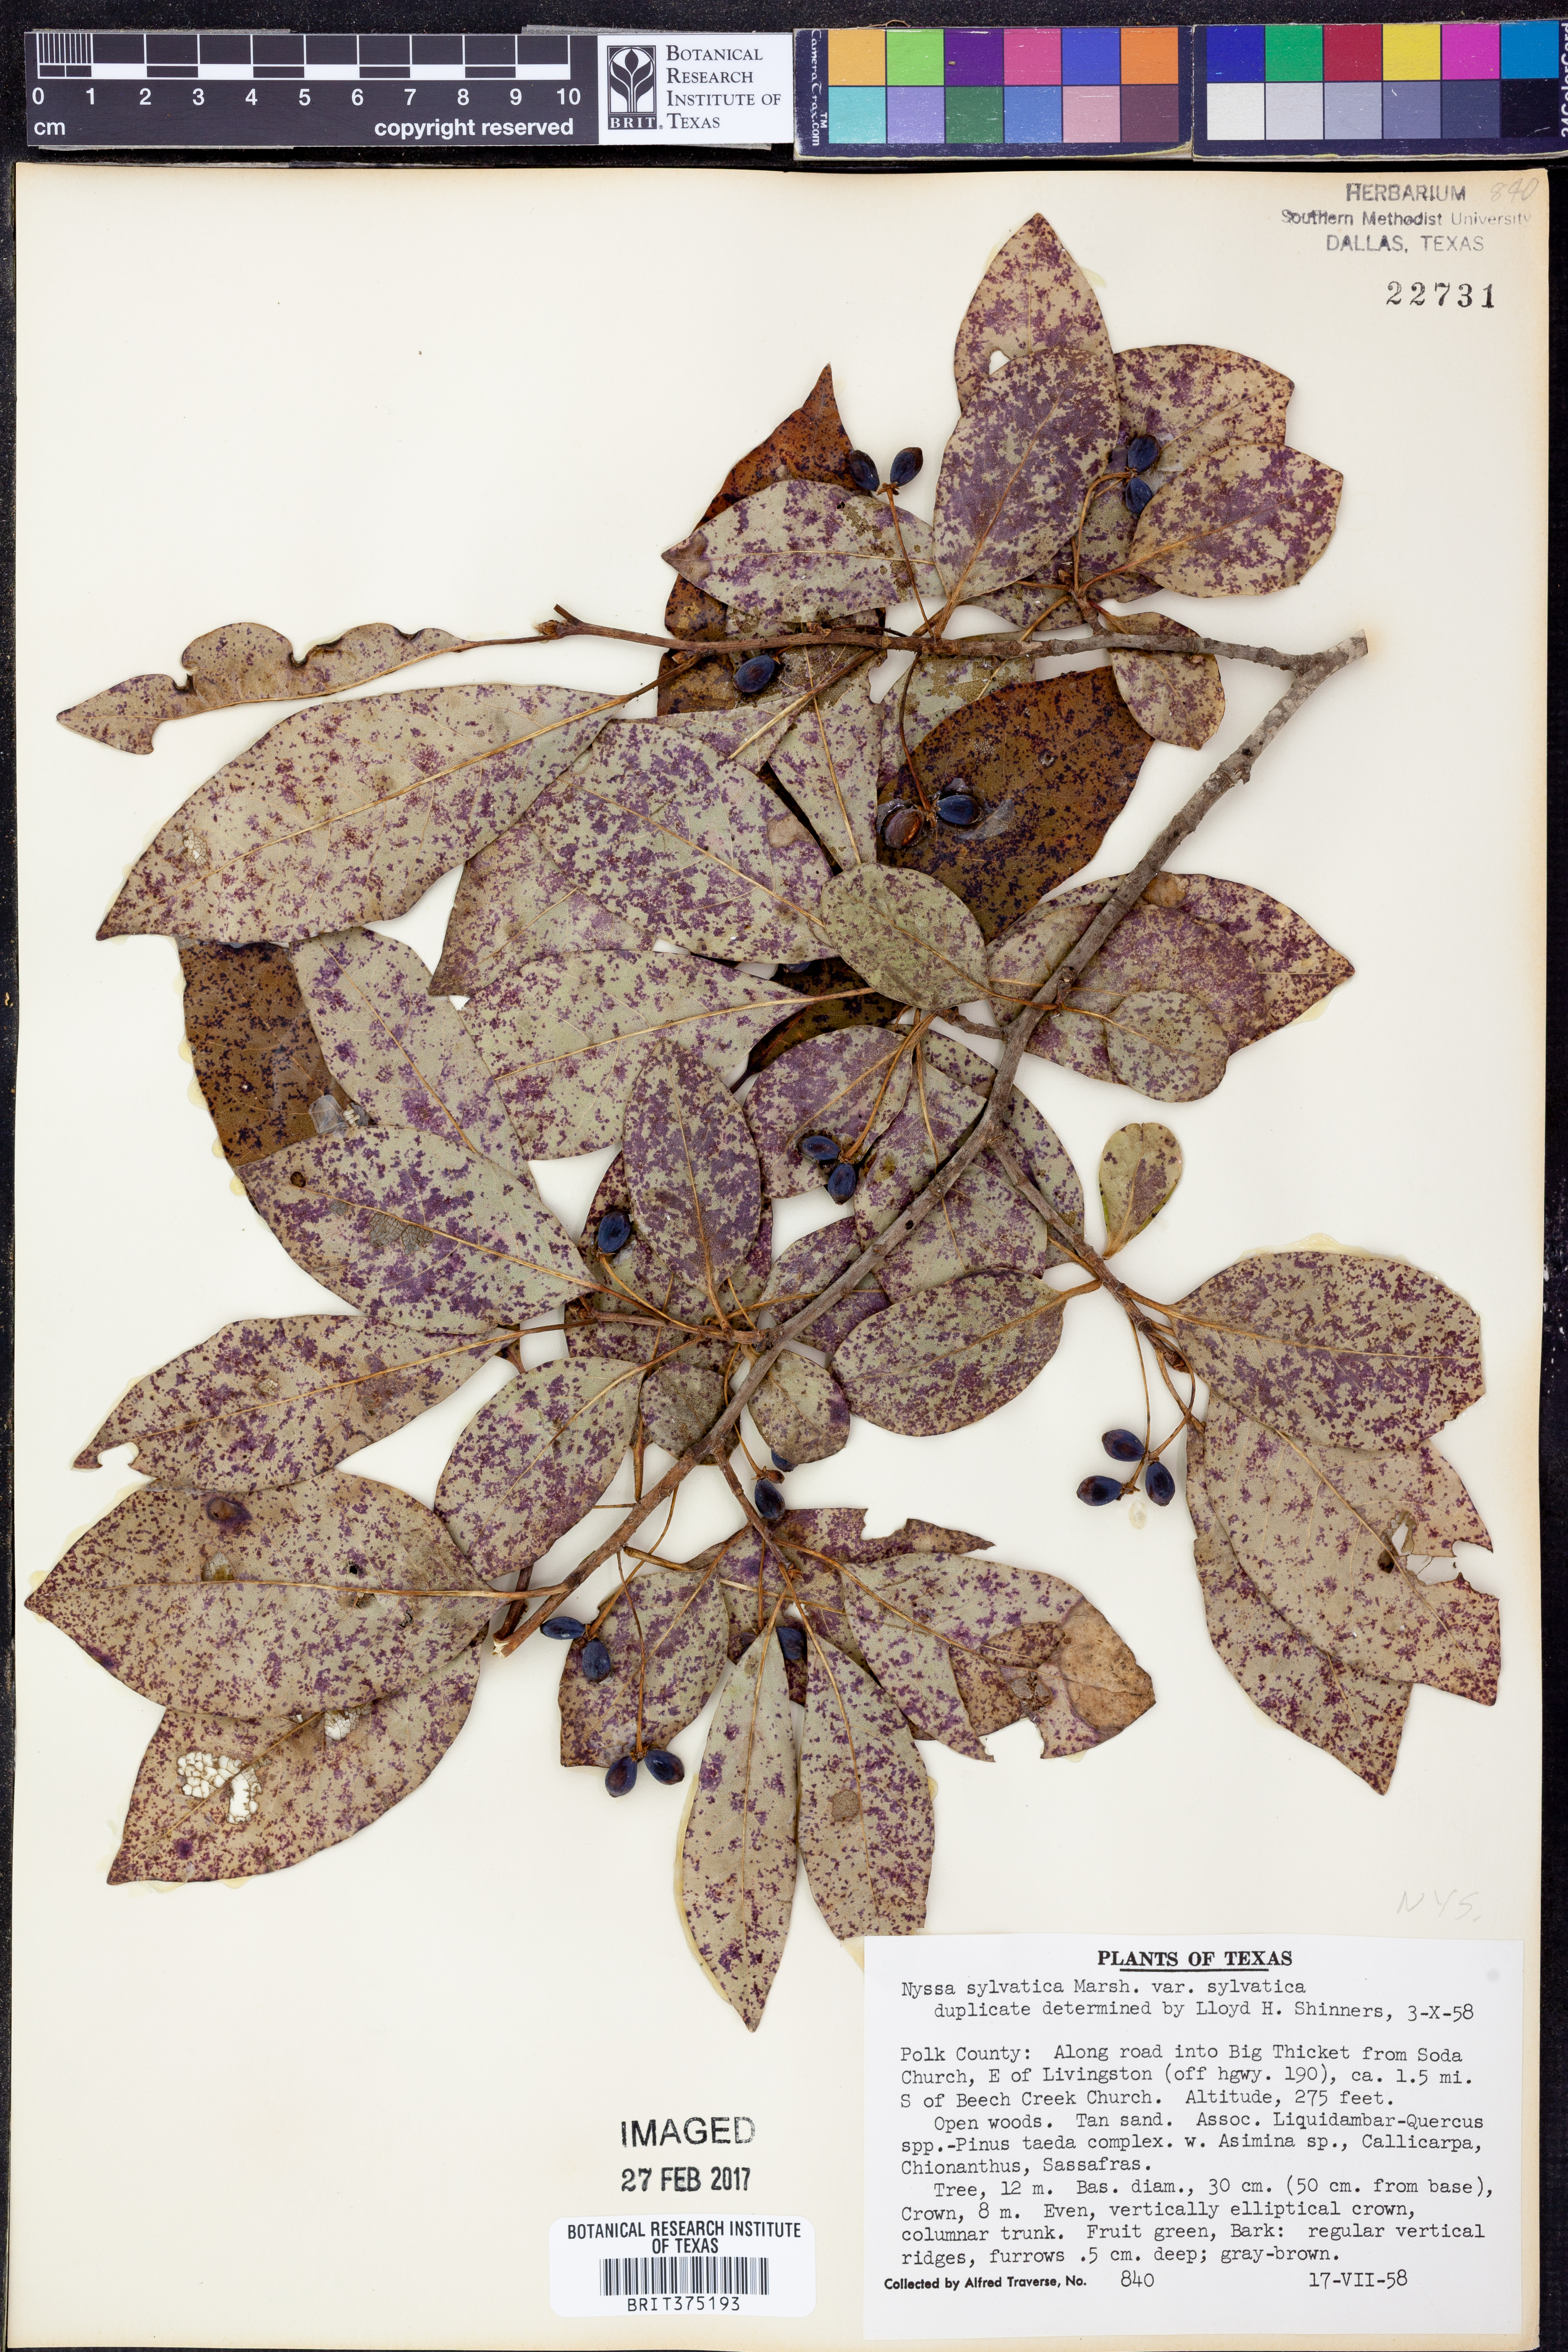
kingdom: Plantae
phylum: Tracheophyta
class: Magnoliopsida
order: Cornales
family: Nyssaceae
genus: Nyssa
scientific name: Nyssa sylvatica
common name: Black tupelo
